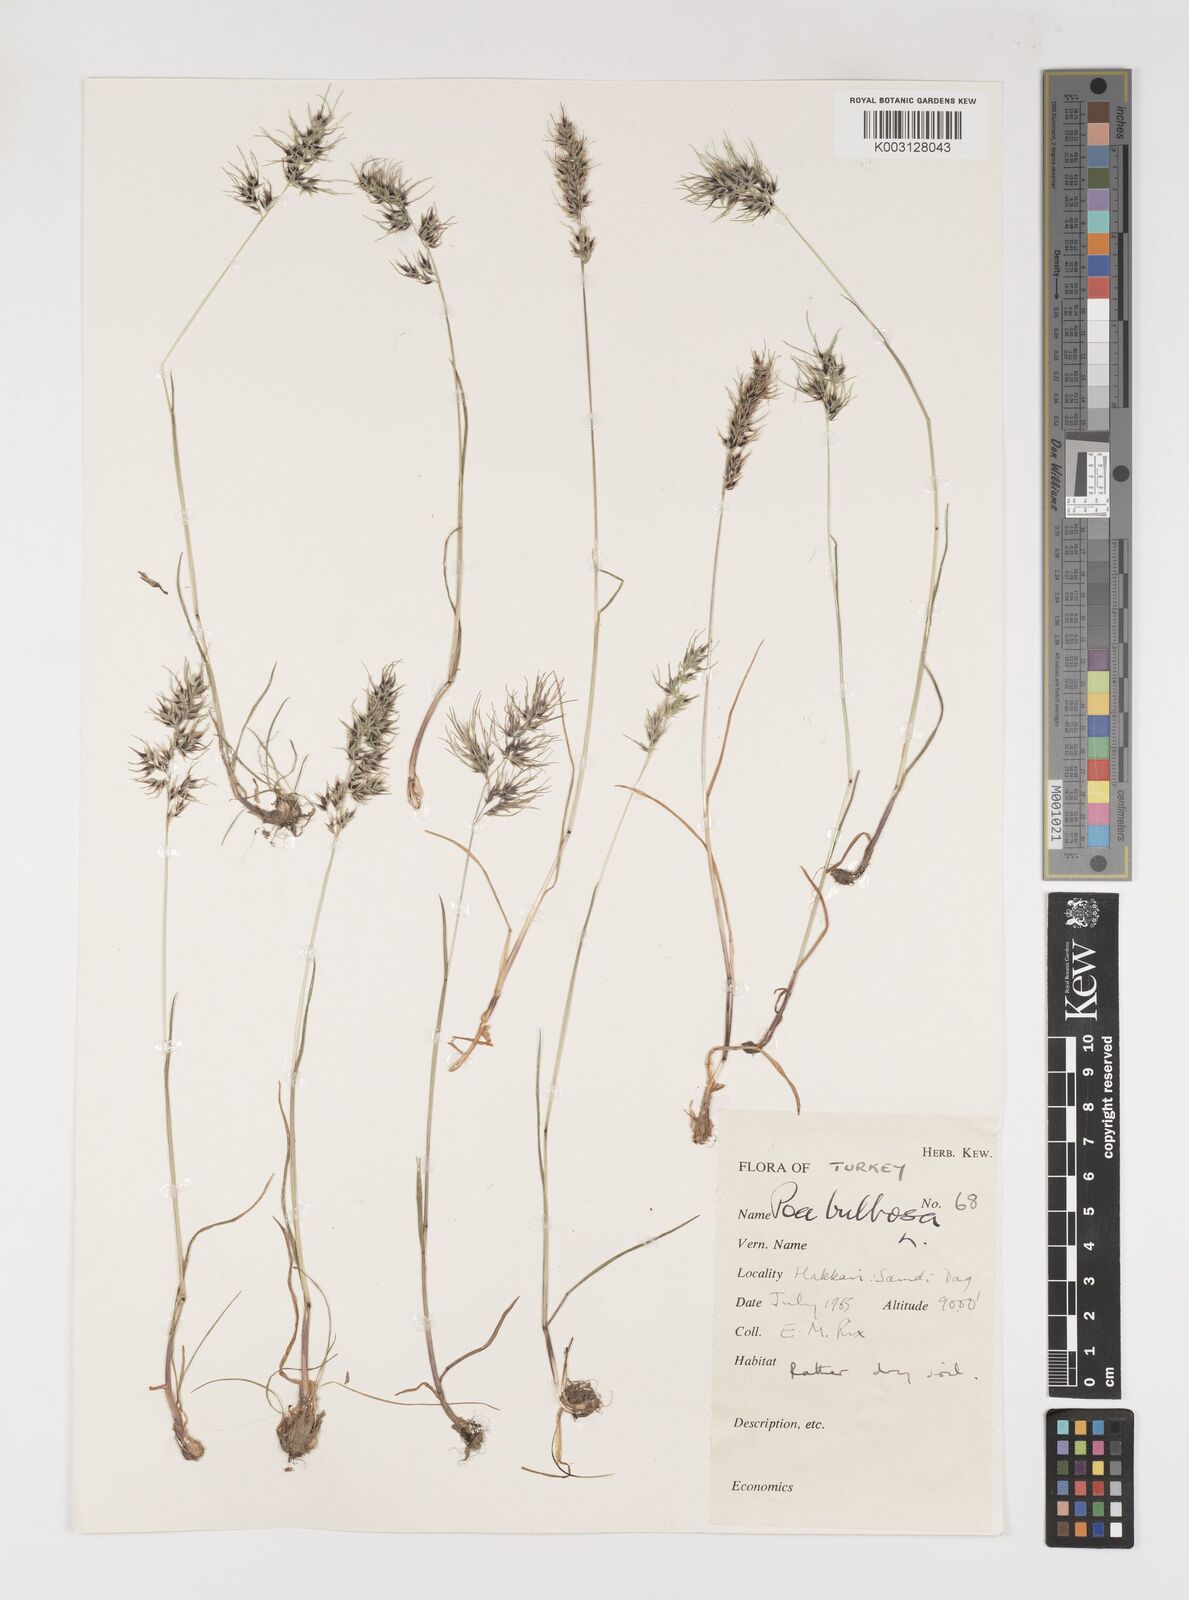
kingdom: Plantae
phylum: Tracheophyta
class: Liliopsida
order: Poales
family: Poaceae
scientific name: Poaceae
